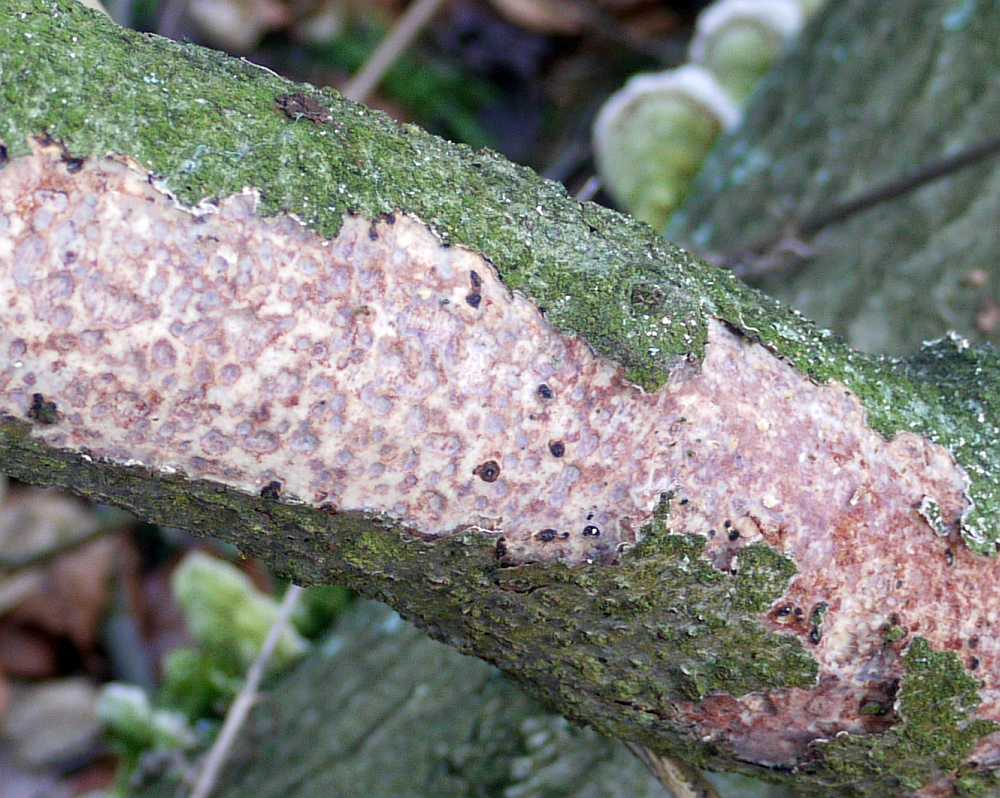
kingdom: Fungi
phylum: Basidiomycota
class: Agaricomycetes
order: Corticiales
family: Vuilleminiaceae
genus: Vuilleminia
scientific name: Vuilleminia comedens
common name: almindelig barksprænger
